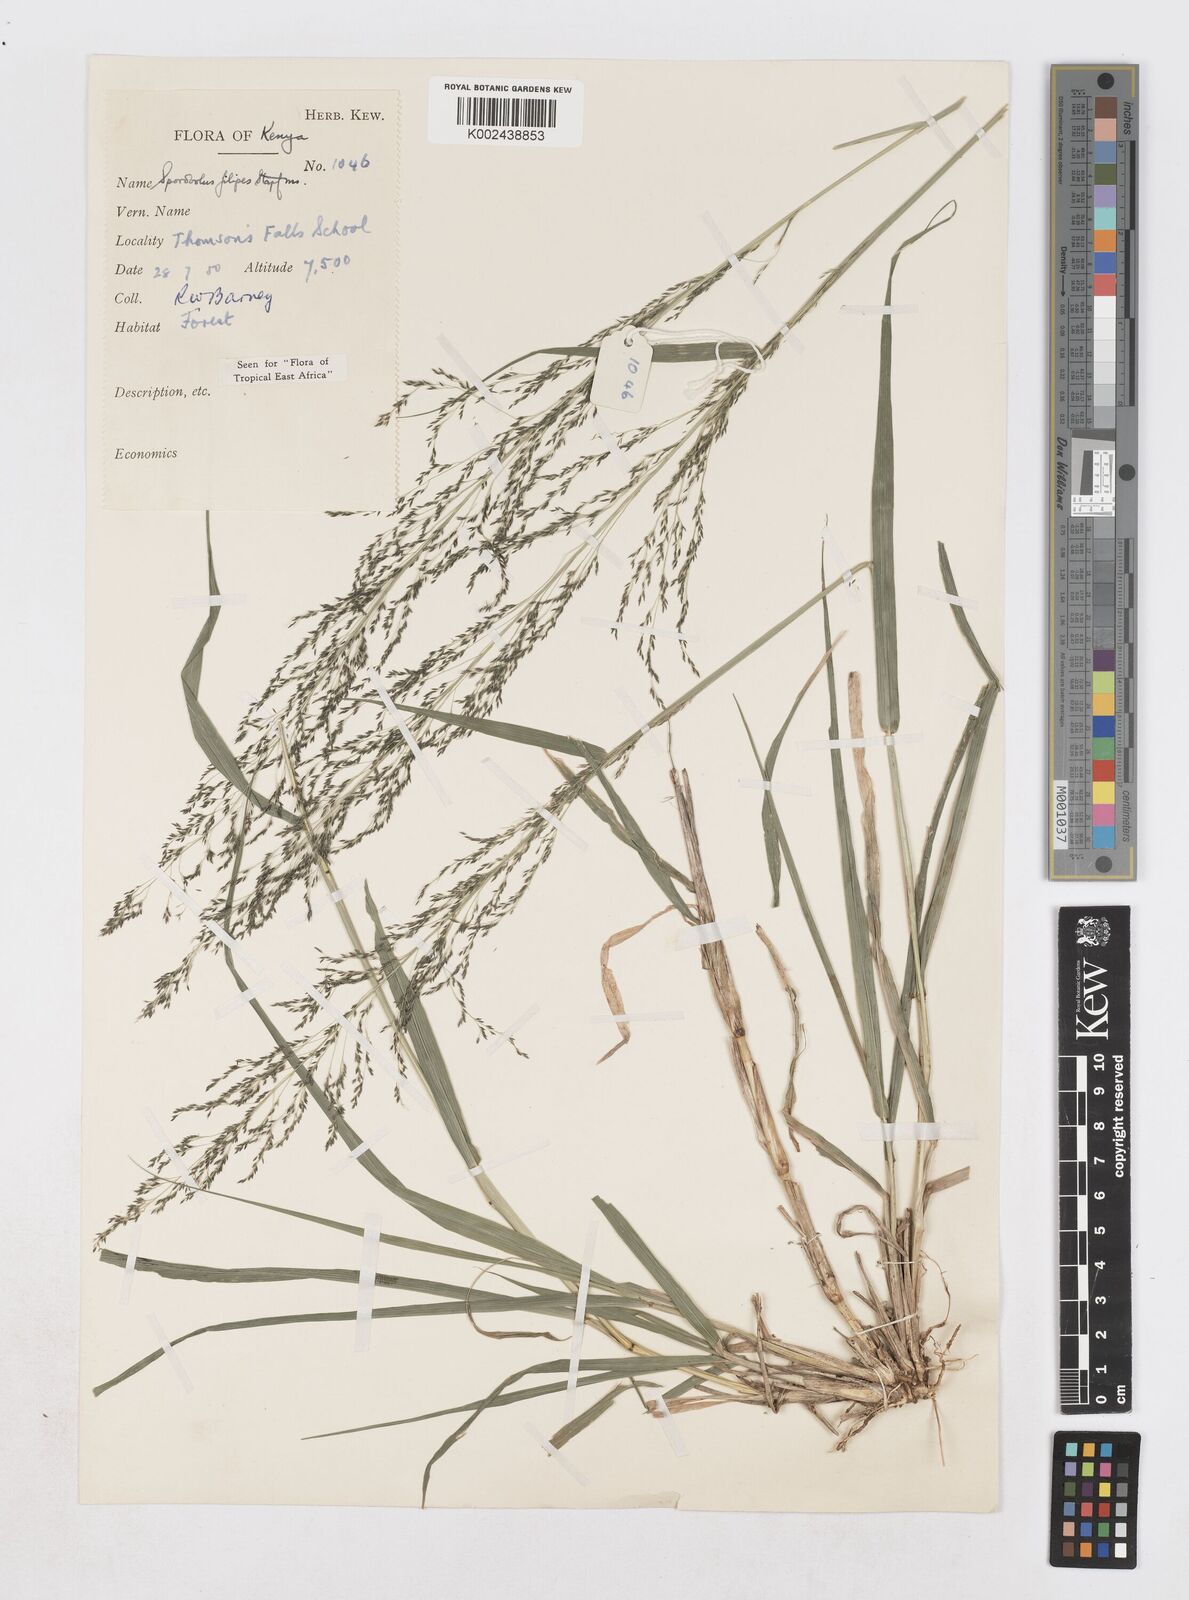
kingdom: Plantae
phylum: Tracheophyta
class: Liliopsida
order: Poales
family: Poaceae
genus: Sporobolus
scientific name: Sporobolus agrostoides
